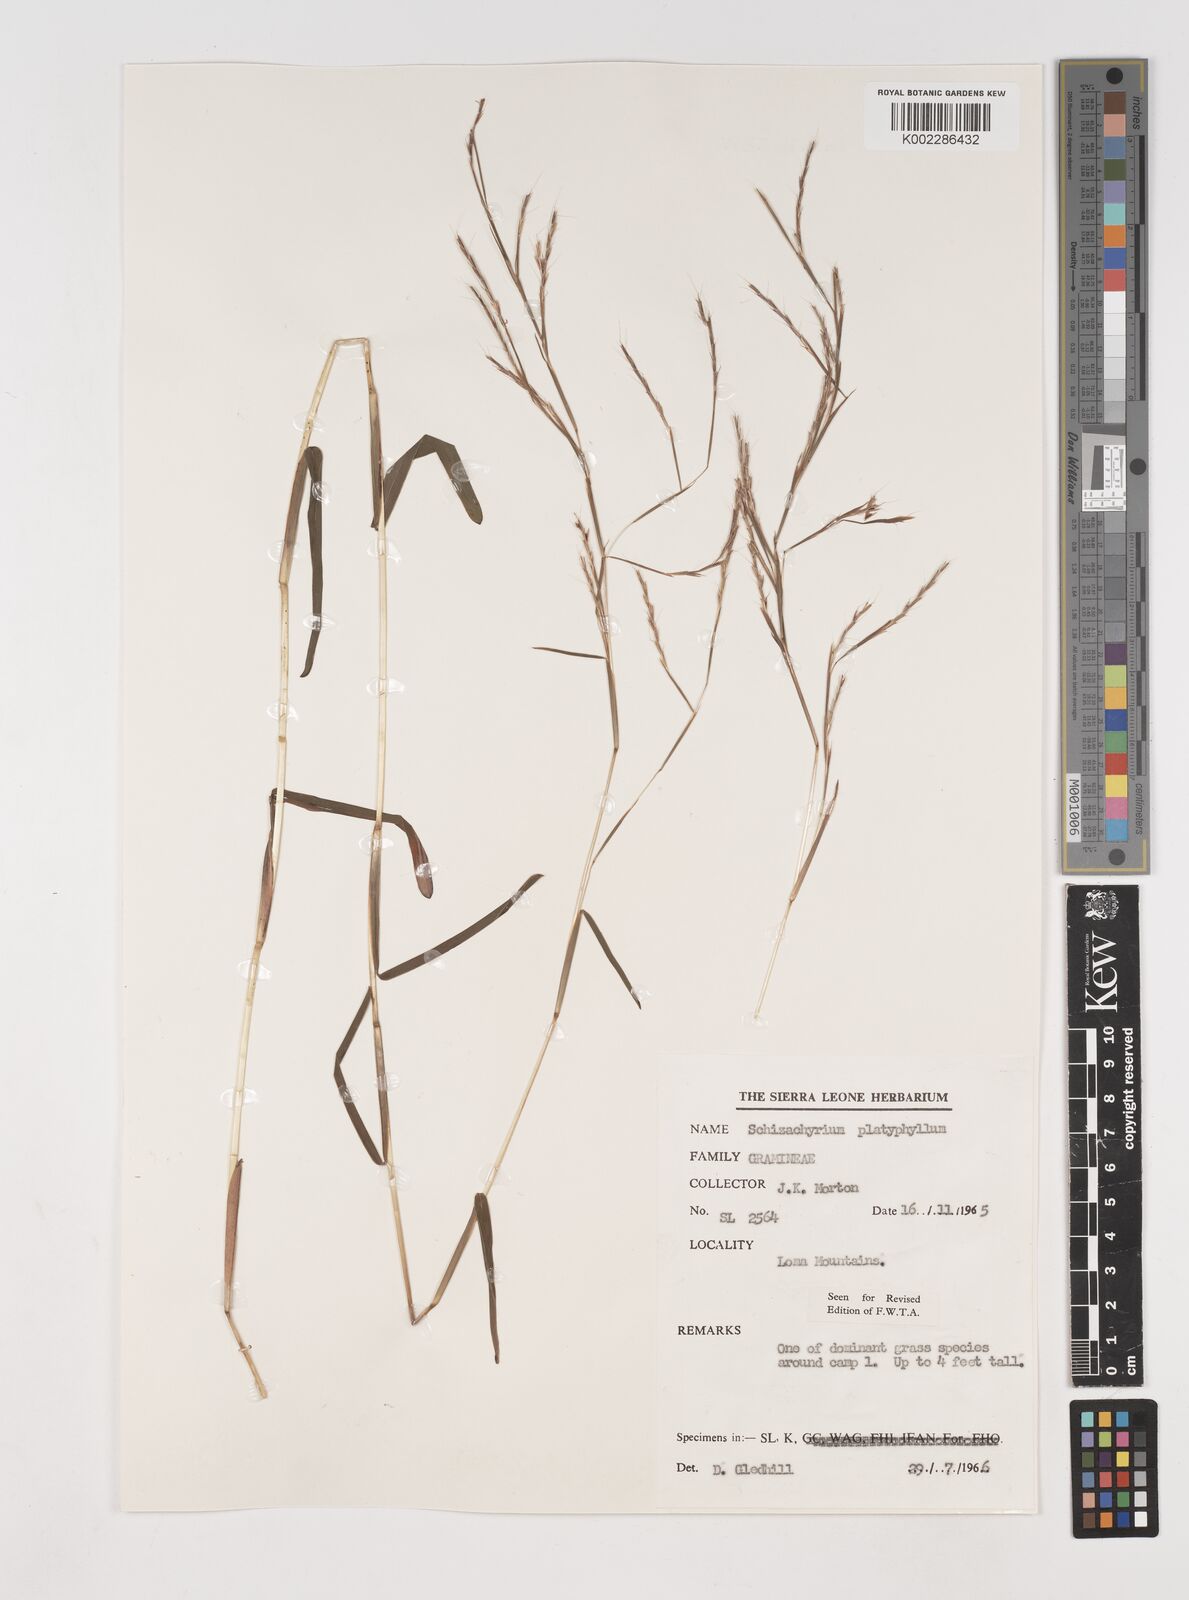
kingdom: Plantae
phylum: Tracheophyta
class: Liliopsida
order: Poales
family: Poaceae
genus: Schizachyrium
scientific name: Schizachyrium platyphyllum
